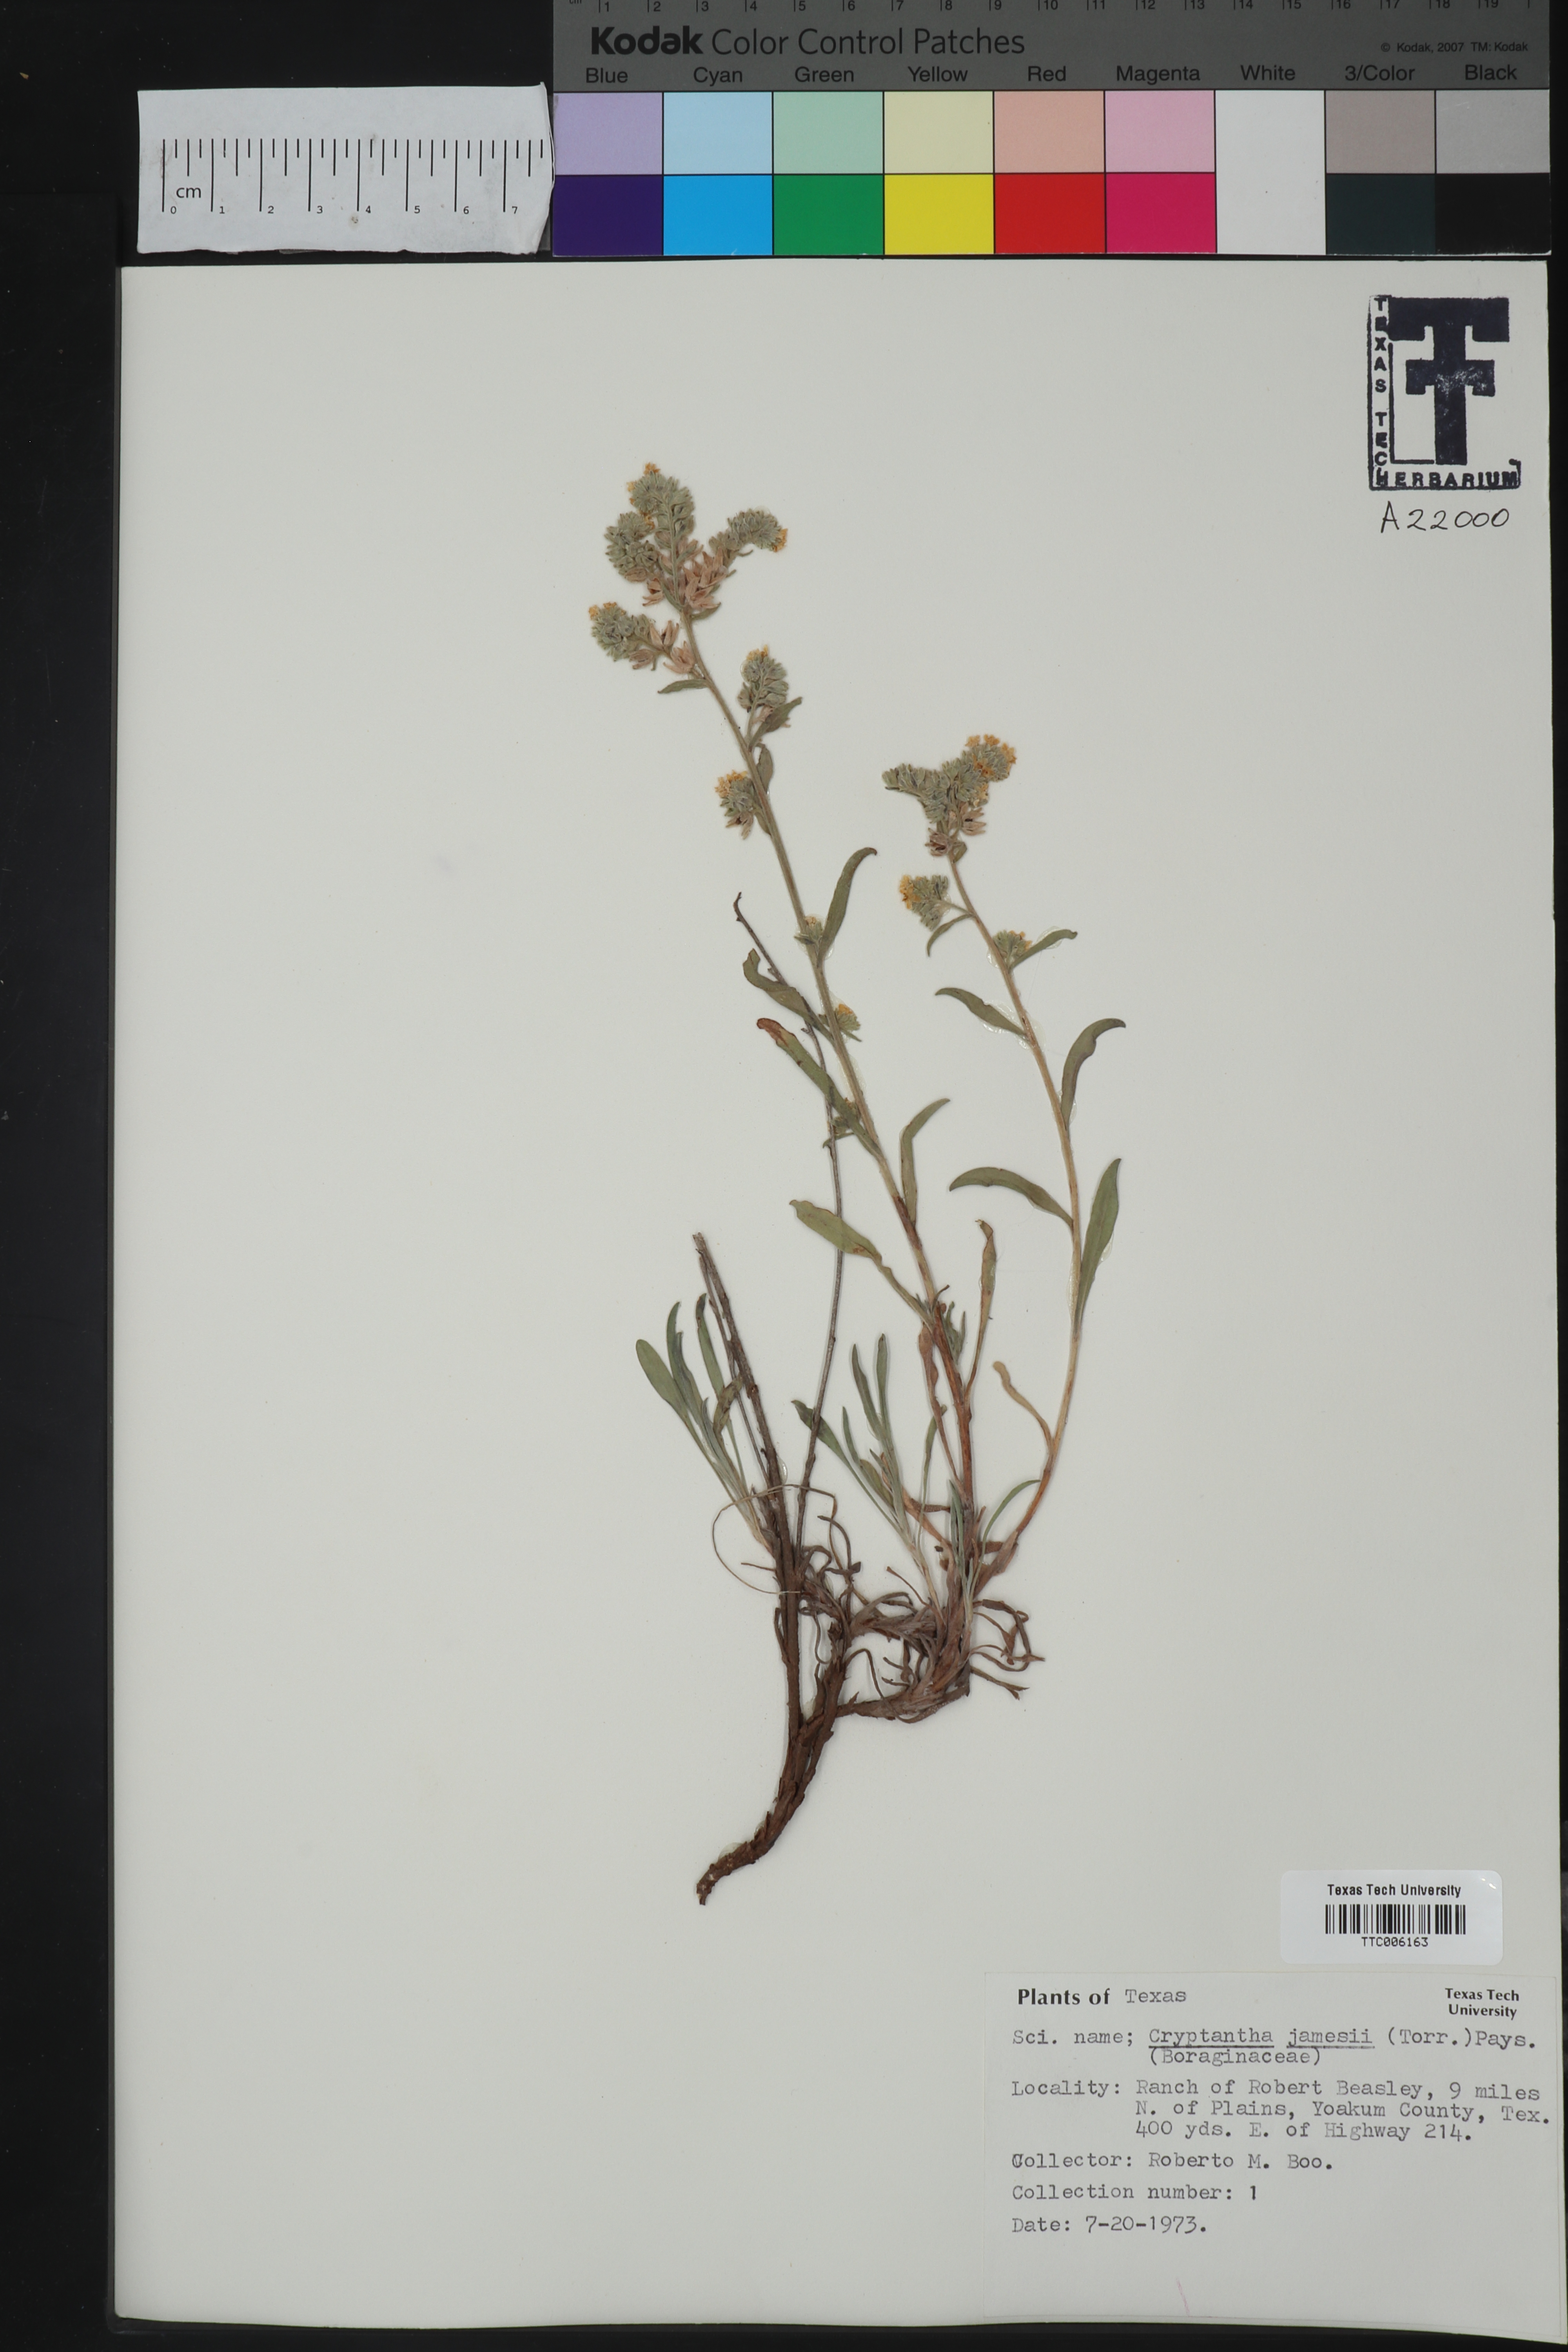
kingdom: Plantae
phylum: Tracheophyta
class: Magnoliopsida
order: Boraginales
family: Boraginaceae
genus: Oreocarya
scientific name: Oreocarya suffruticosa
